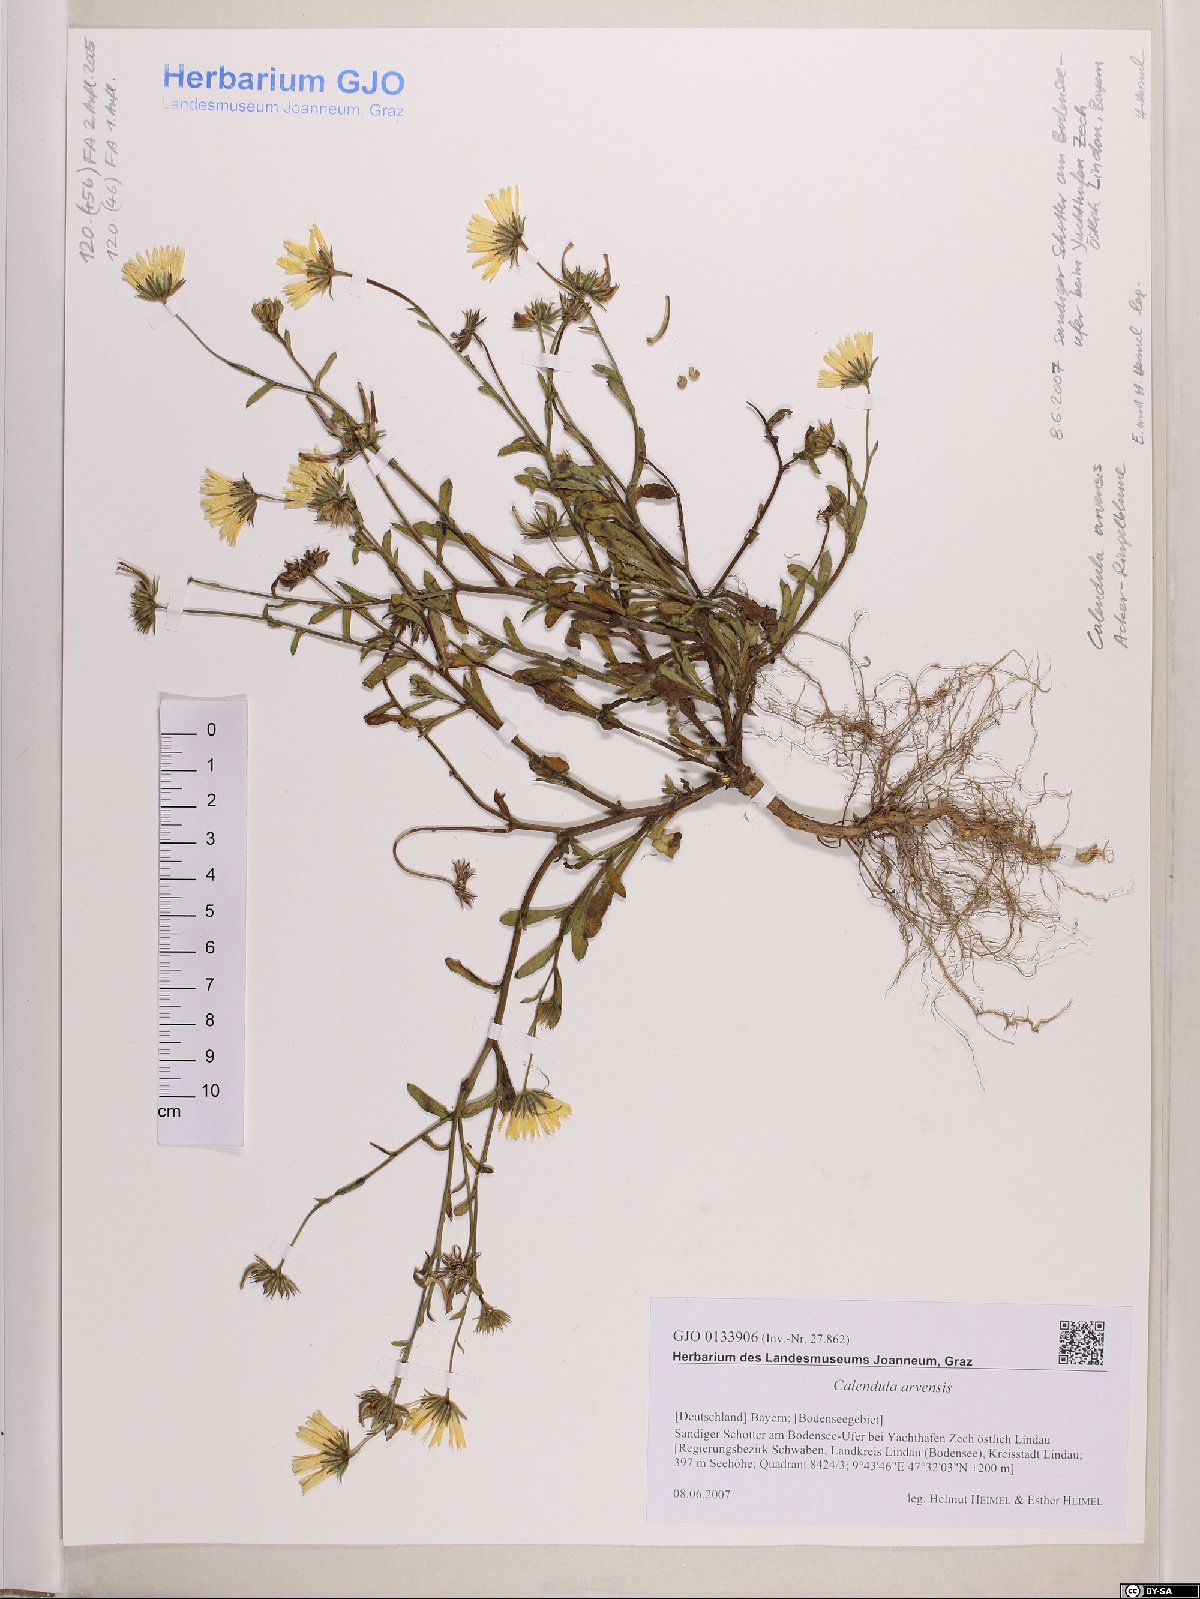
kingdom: Plantae
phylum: Tracheophyta
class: Magnoliopsida
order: Asterales
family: Asteraceae
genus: Calendula
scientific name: Calendula arvensis
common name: Field marigold
